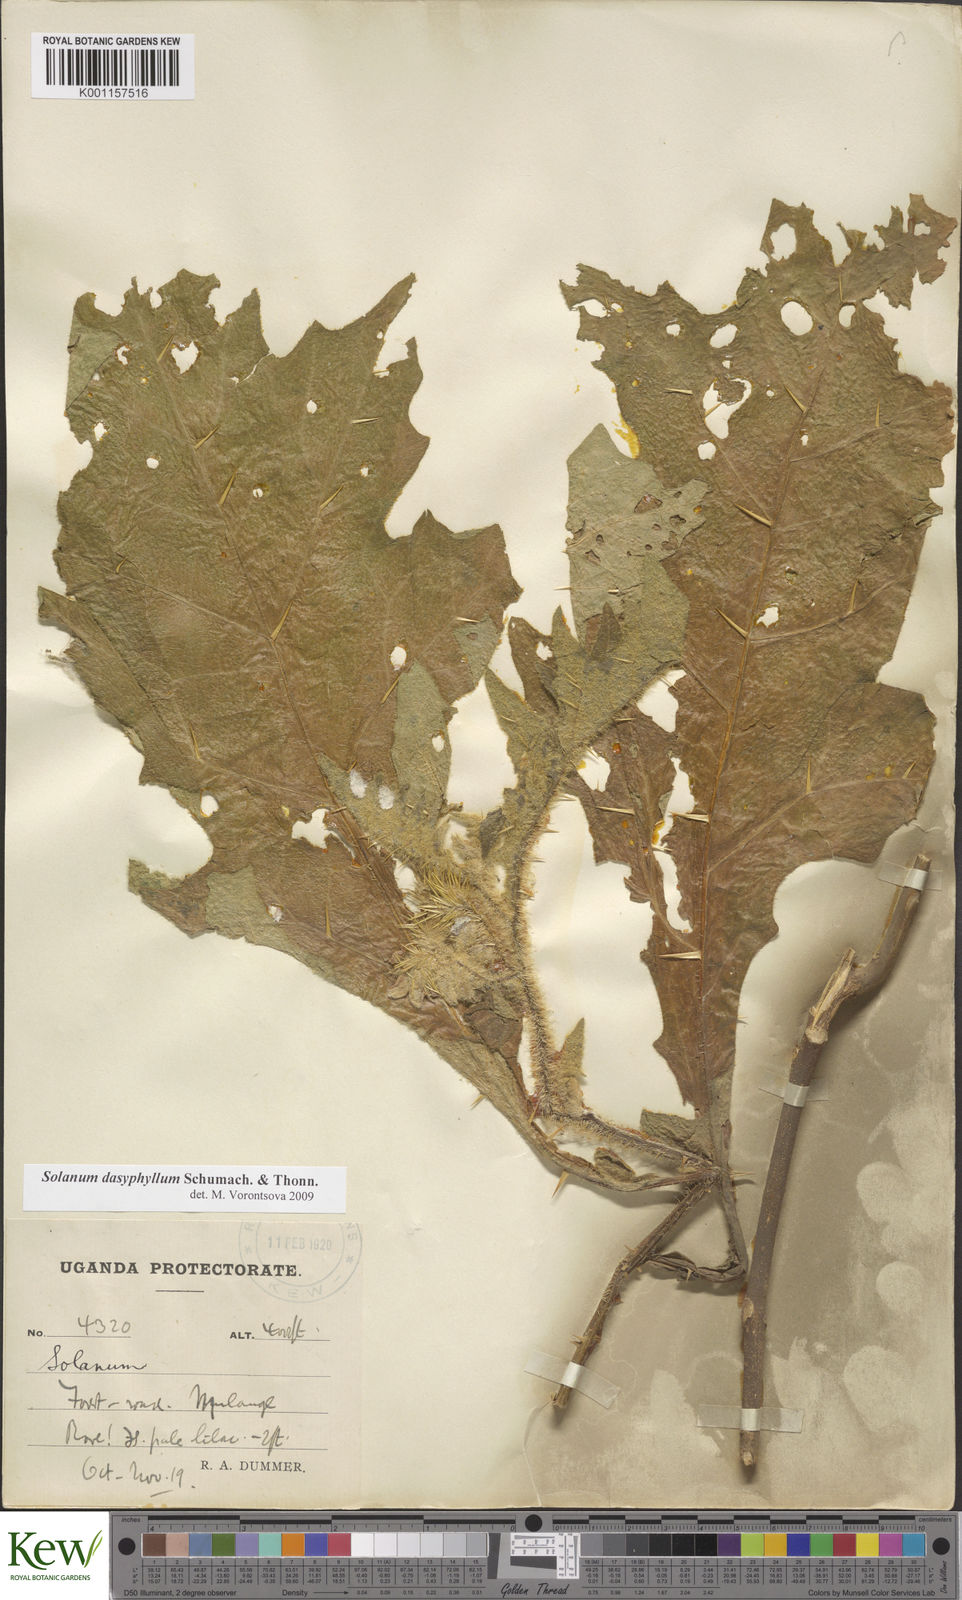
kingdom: Plantae
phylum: Tracheophyta
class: Magnoliopsida
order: Solanales
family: Solanaceae
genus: Solanum
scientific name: Solanum dasyphyllum
